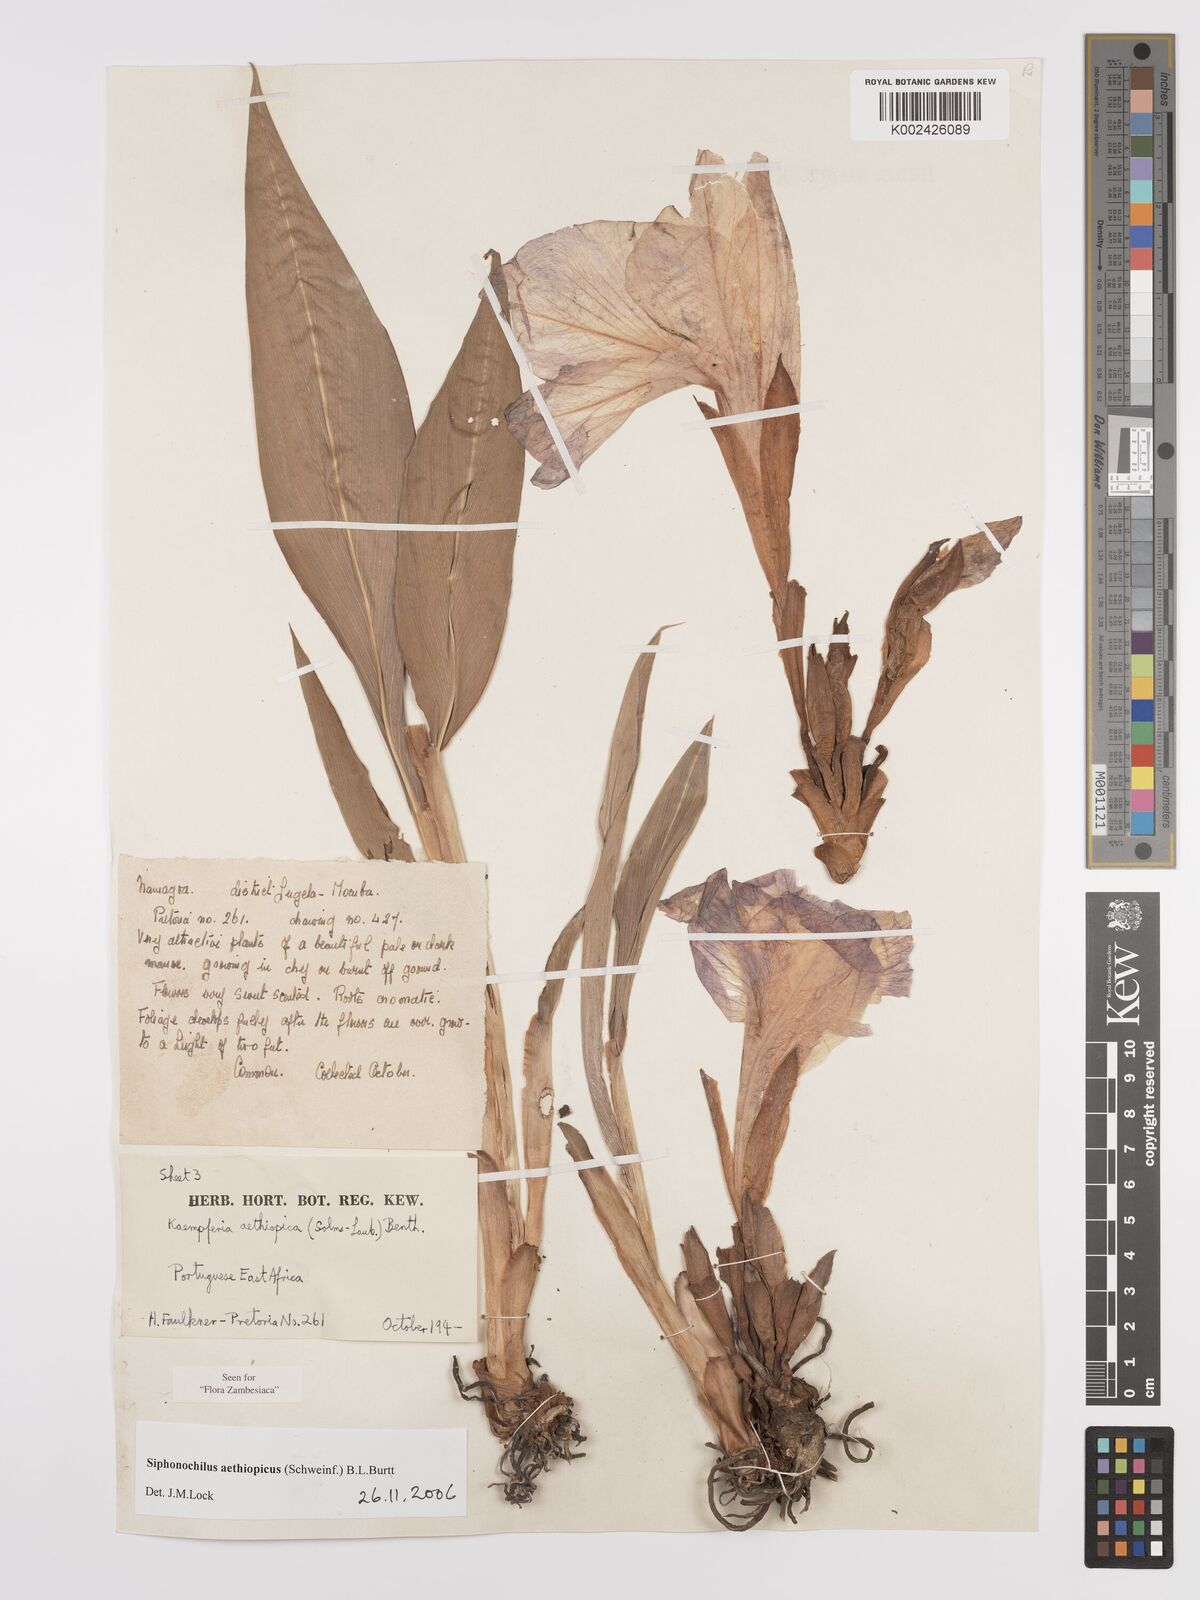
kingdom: Plantae
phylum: Tracheophyta
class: Liliopsida
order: Zingiberales
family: Zingiberaceae
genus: Siphonochilus
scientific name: Siphonochilus aethiopicus
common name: African-ginger
